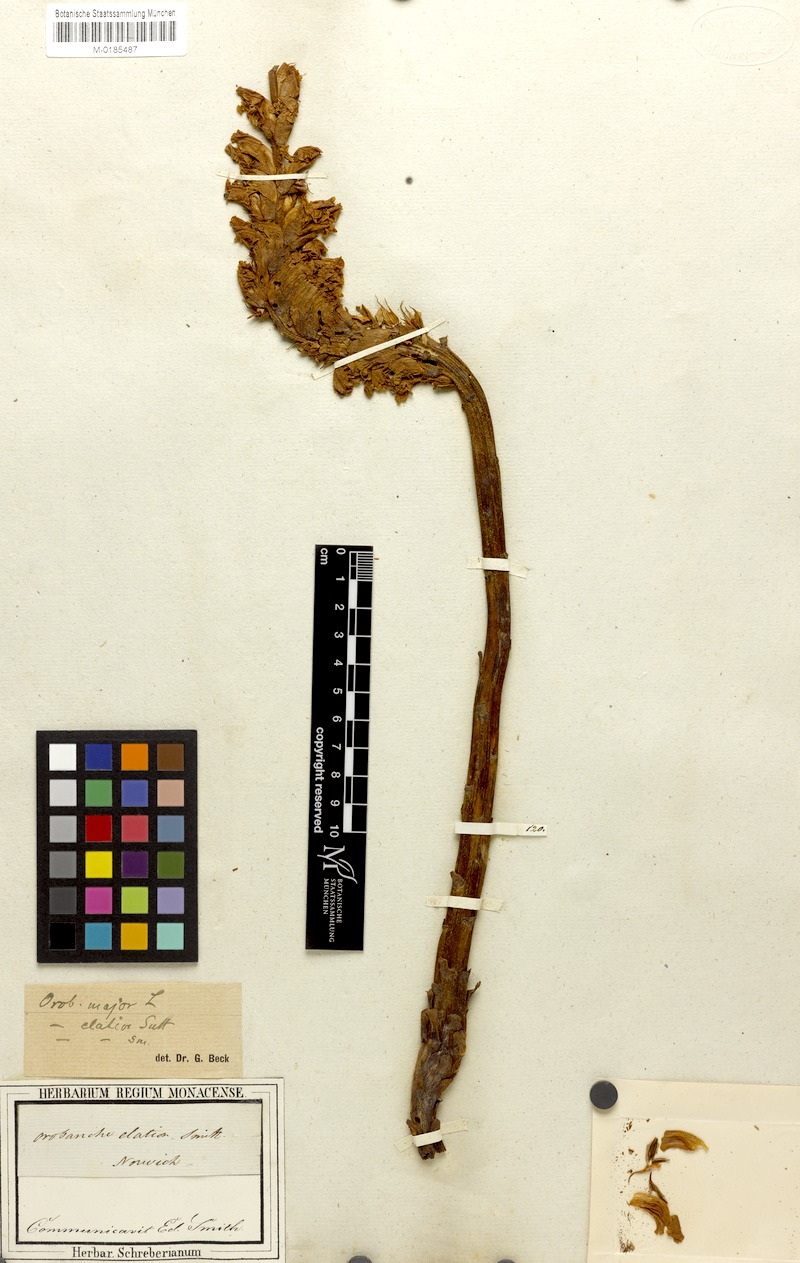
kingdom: Plantae
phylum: Tracheophyta
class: Magnoliopsida
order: Lamiales
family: Orobanchaceae
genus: Orobanche
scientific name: Orobanche elatior
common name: Knapweed broomrape
